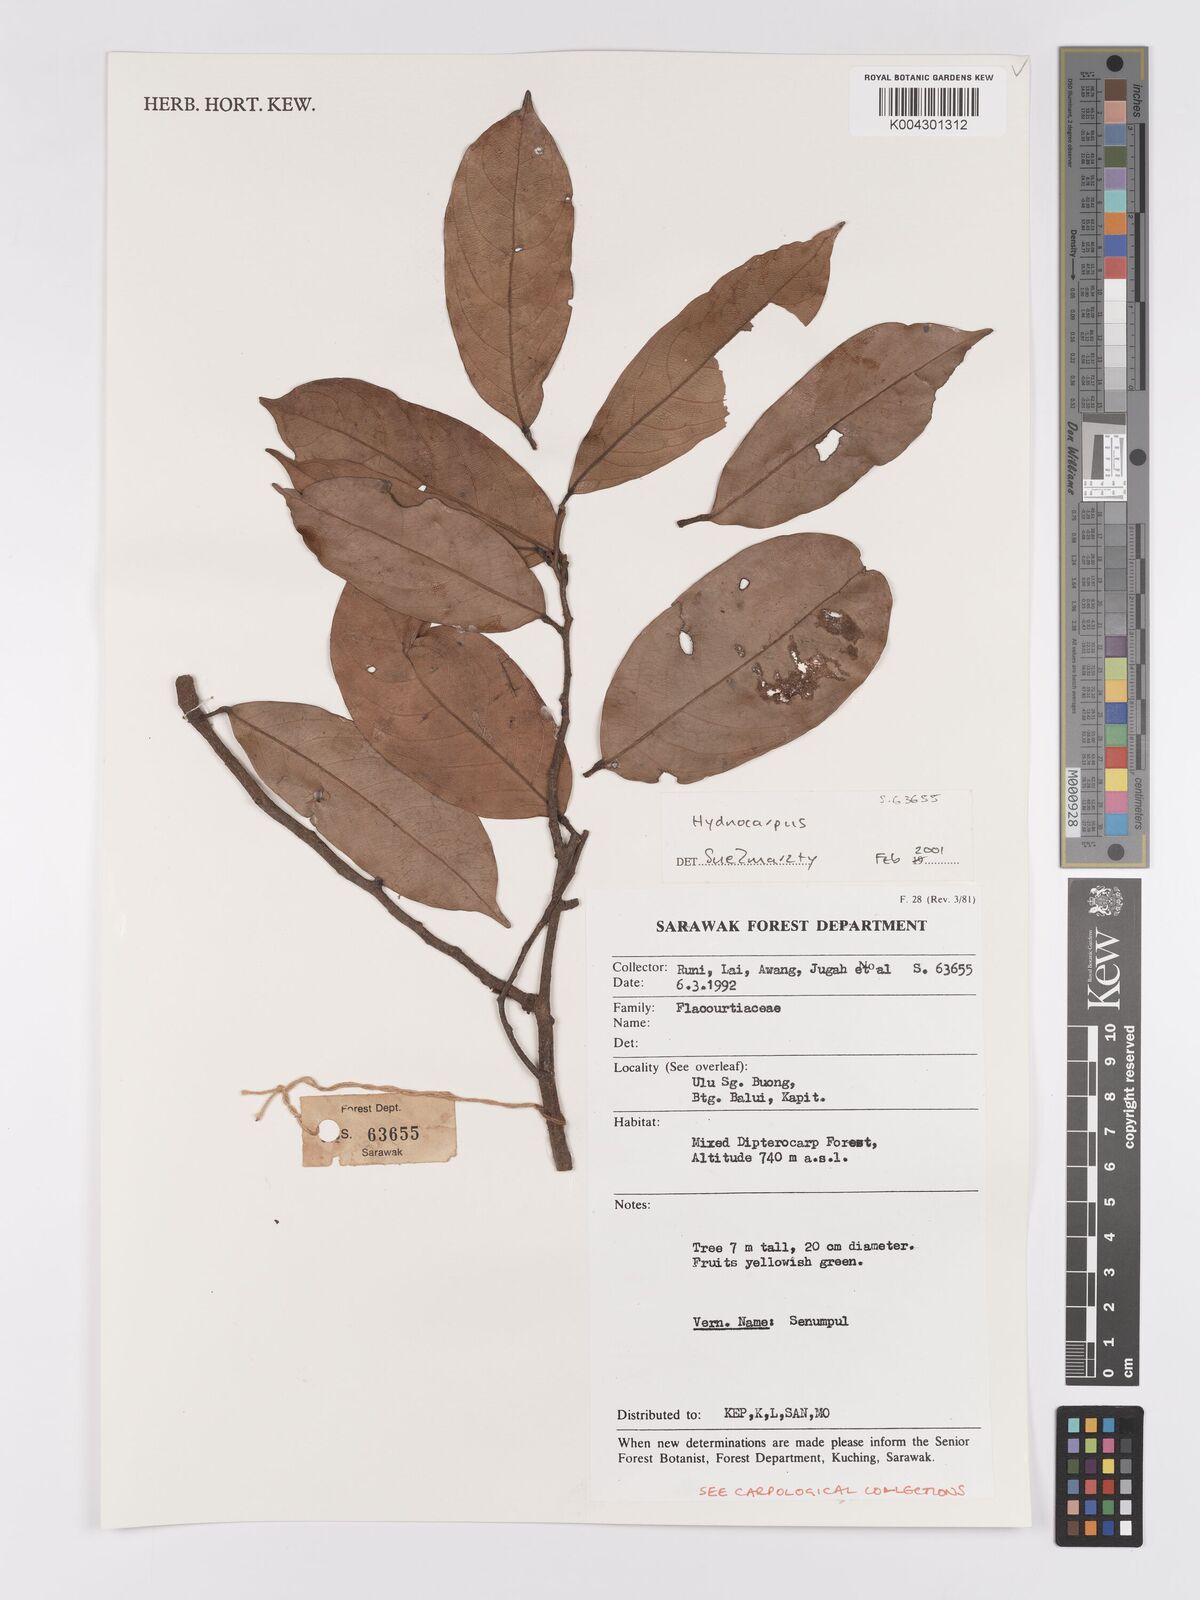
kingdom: Plantae
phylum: Tracheophyta
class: Magnoliopsida
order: Malpighiales
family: Achariaceae
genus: Hydnocarpus
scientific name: Hydnocarpus
